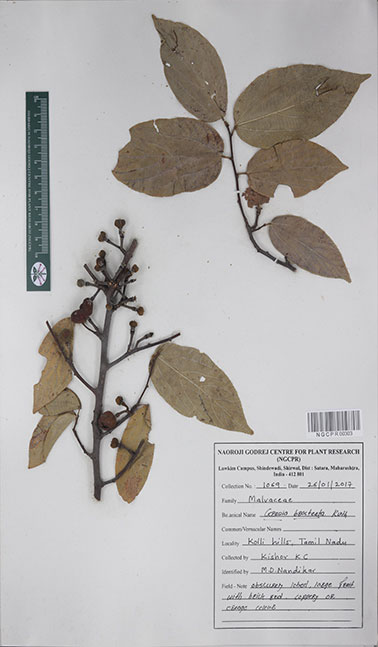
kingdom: Plantae
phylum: Tracheophyta
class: Magnoliopsida
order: Malvales
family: Malvaceae
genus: Grewia
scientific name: Grewia bracteata
